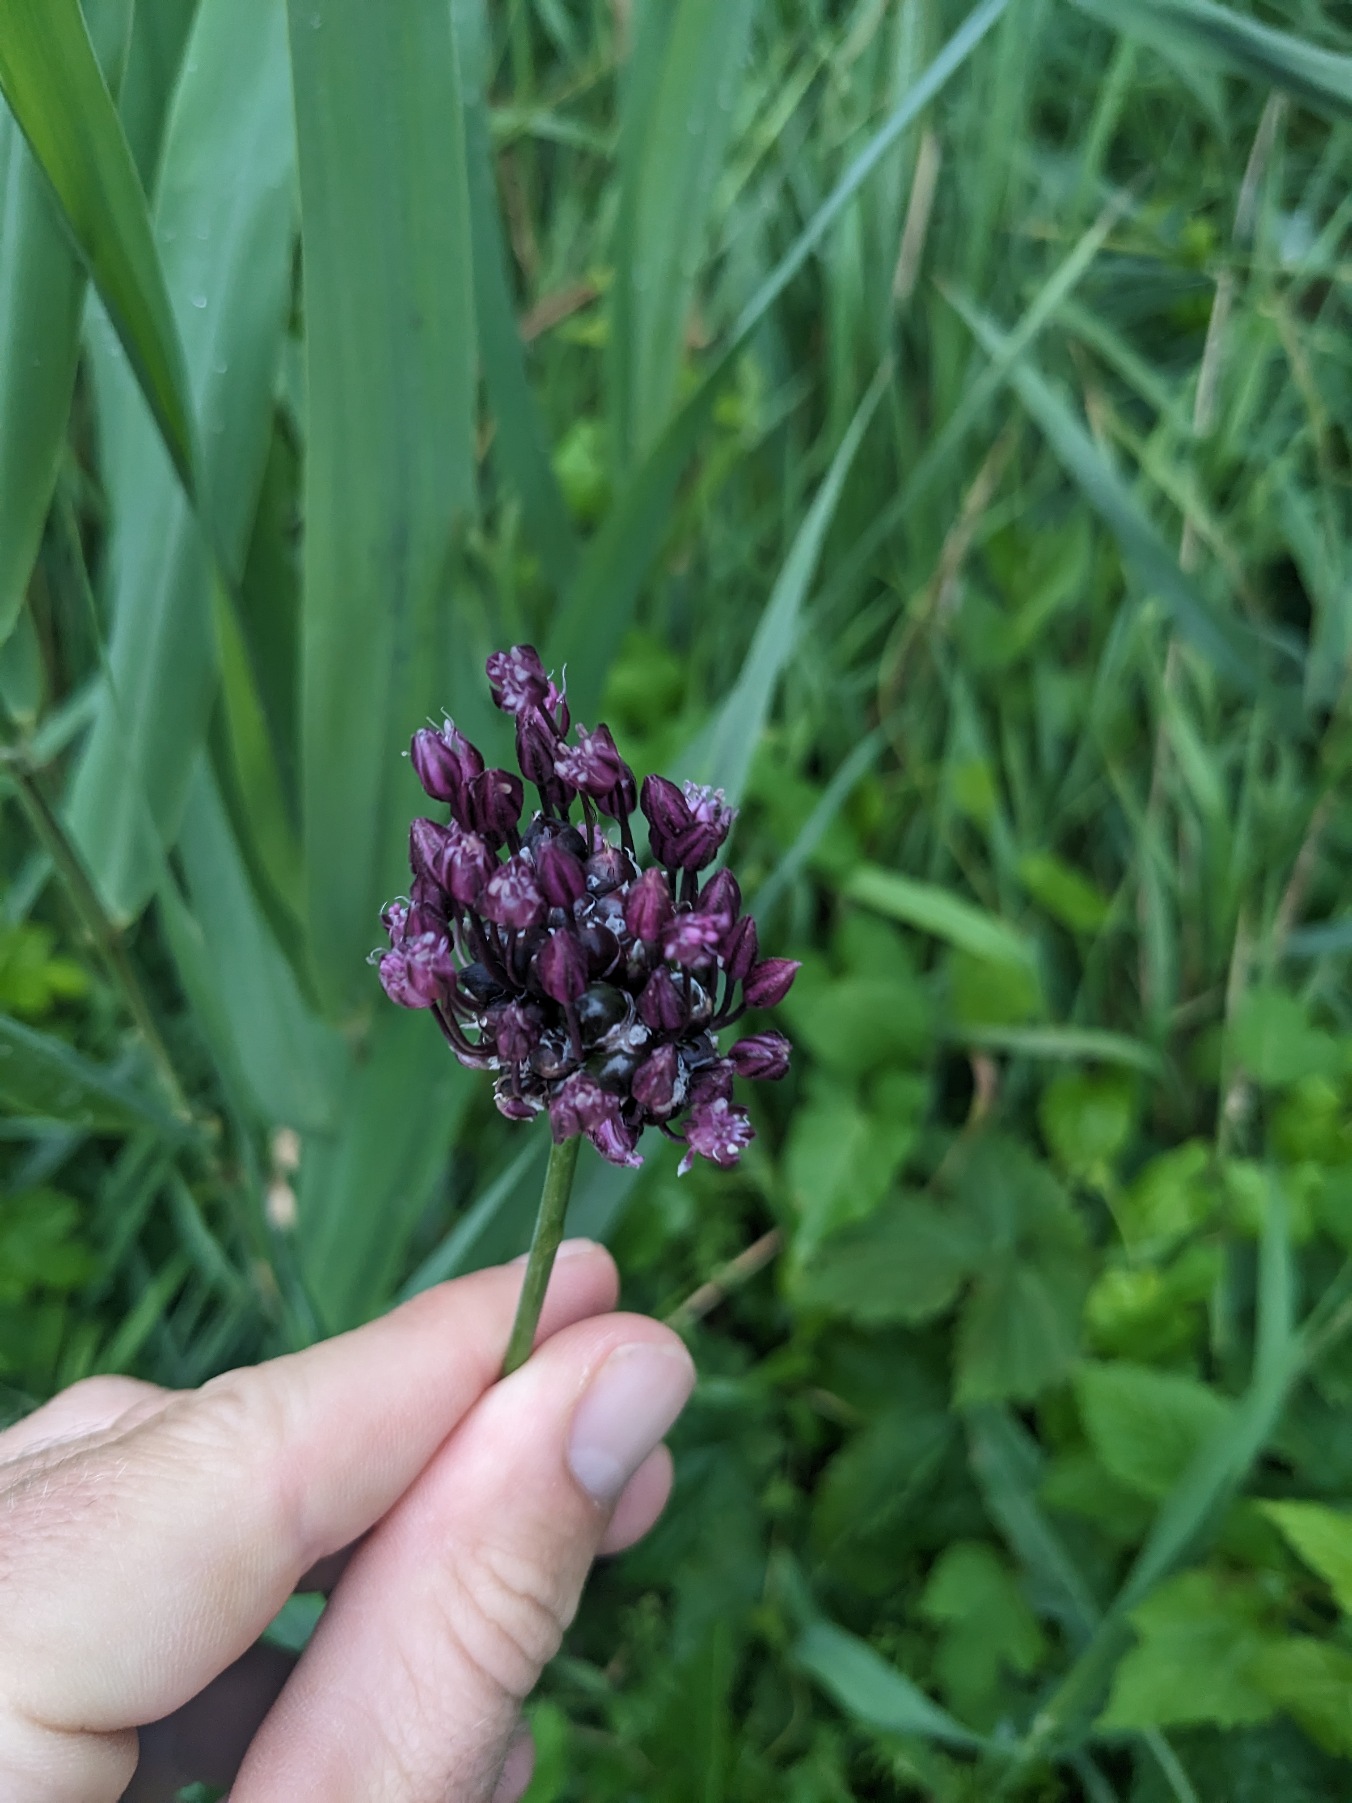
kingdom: Plantae
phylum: Tracheophyta
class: Liliopsida
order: Asparagales
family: Amaryllidaceae
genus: Allium
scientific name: Allium scorodoprasum
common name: Skov-løg
